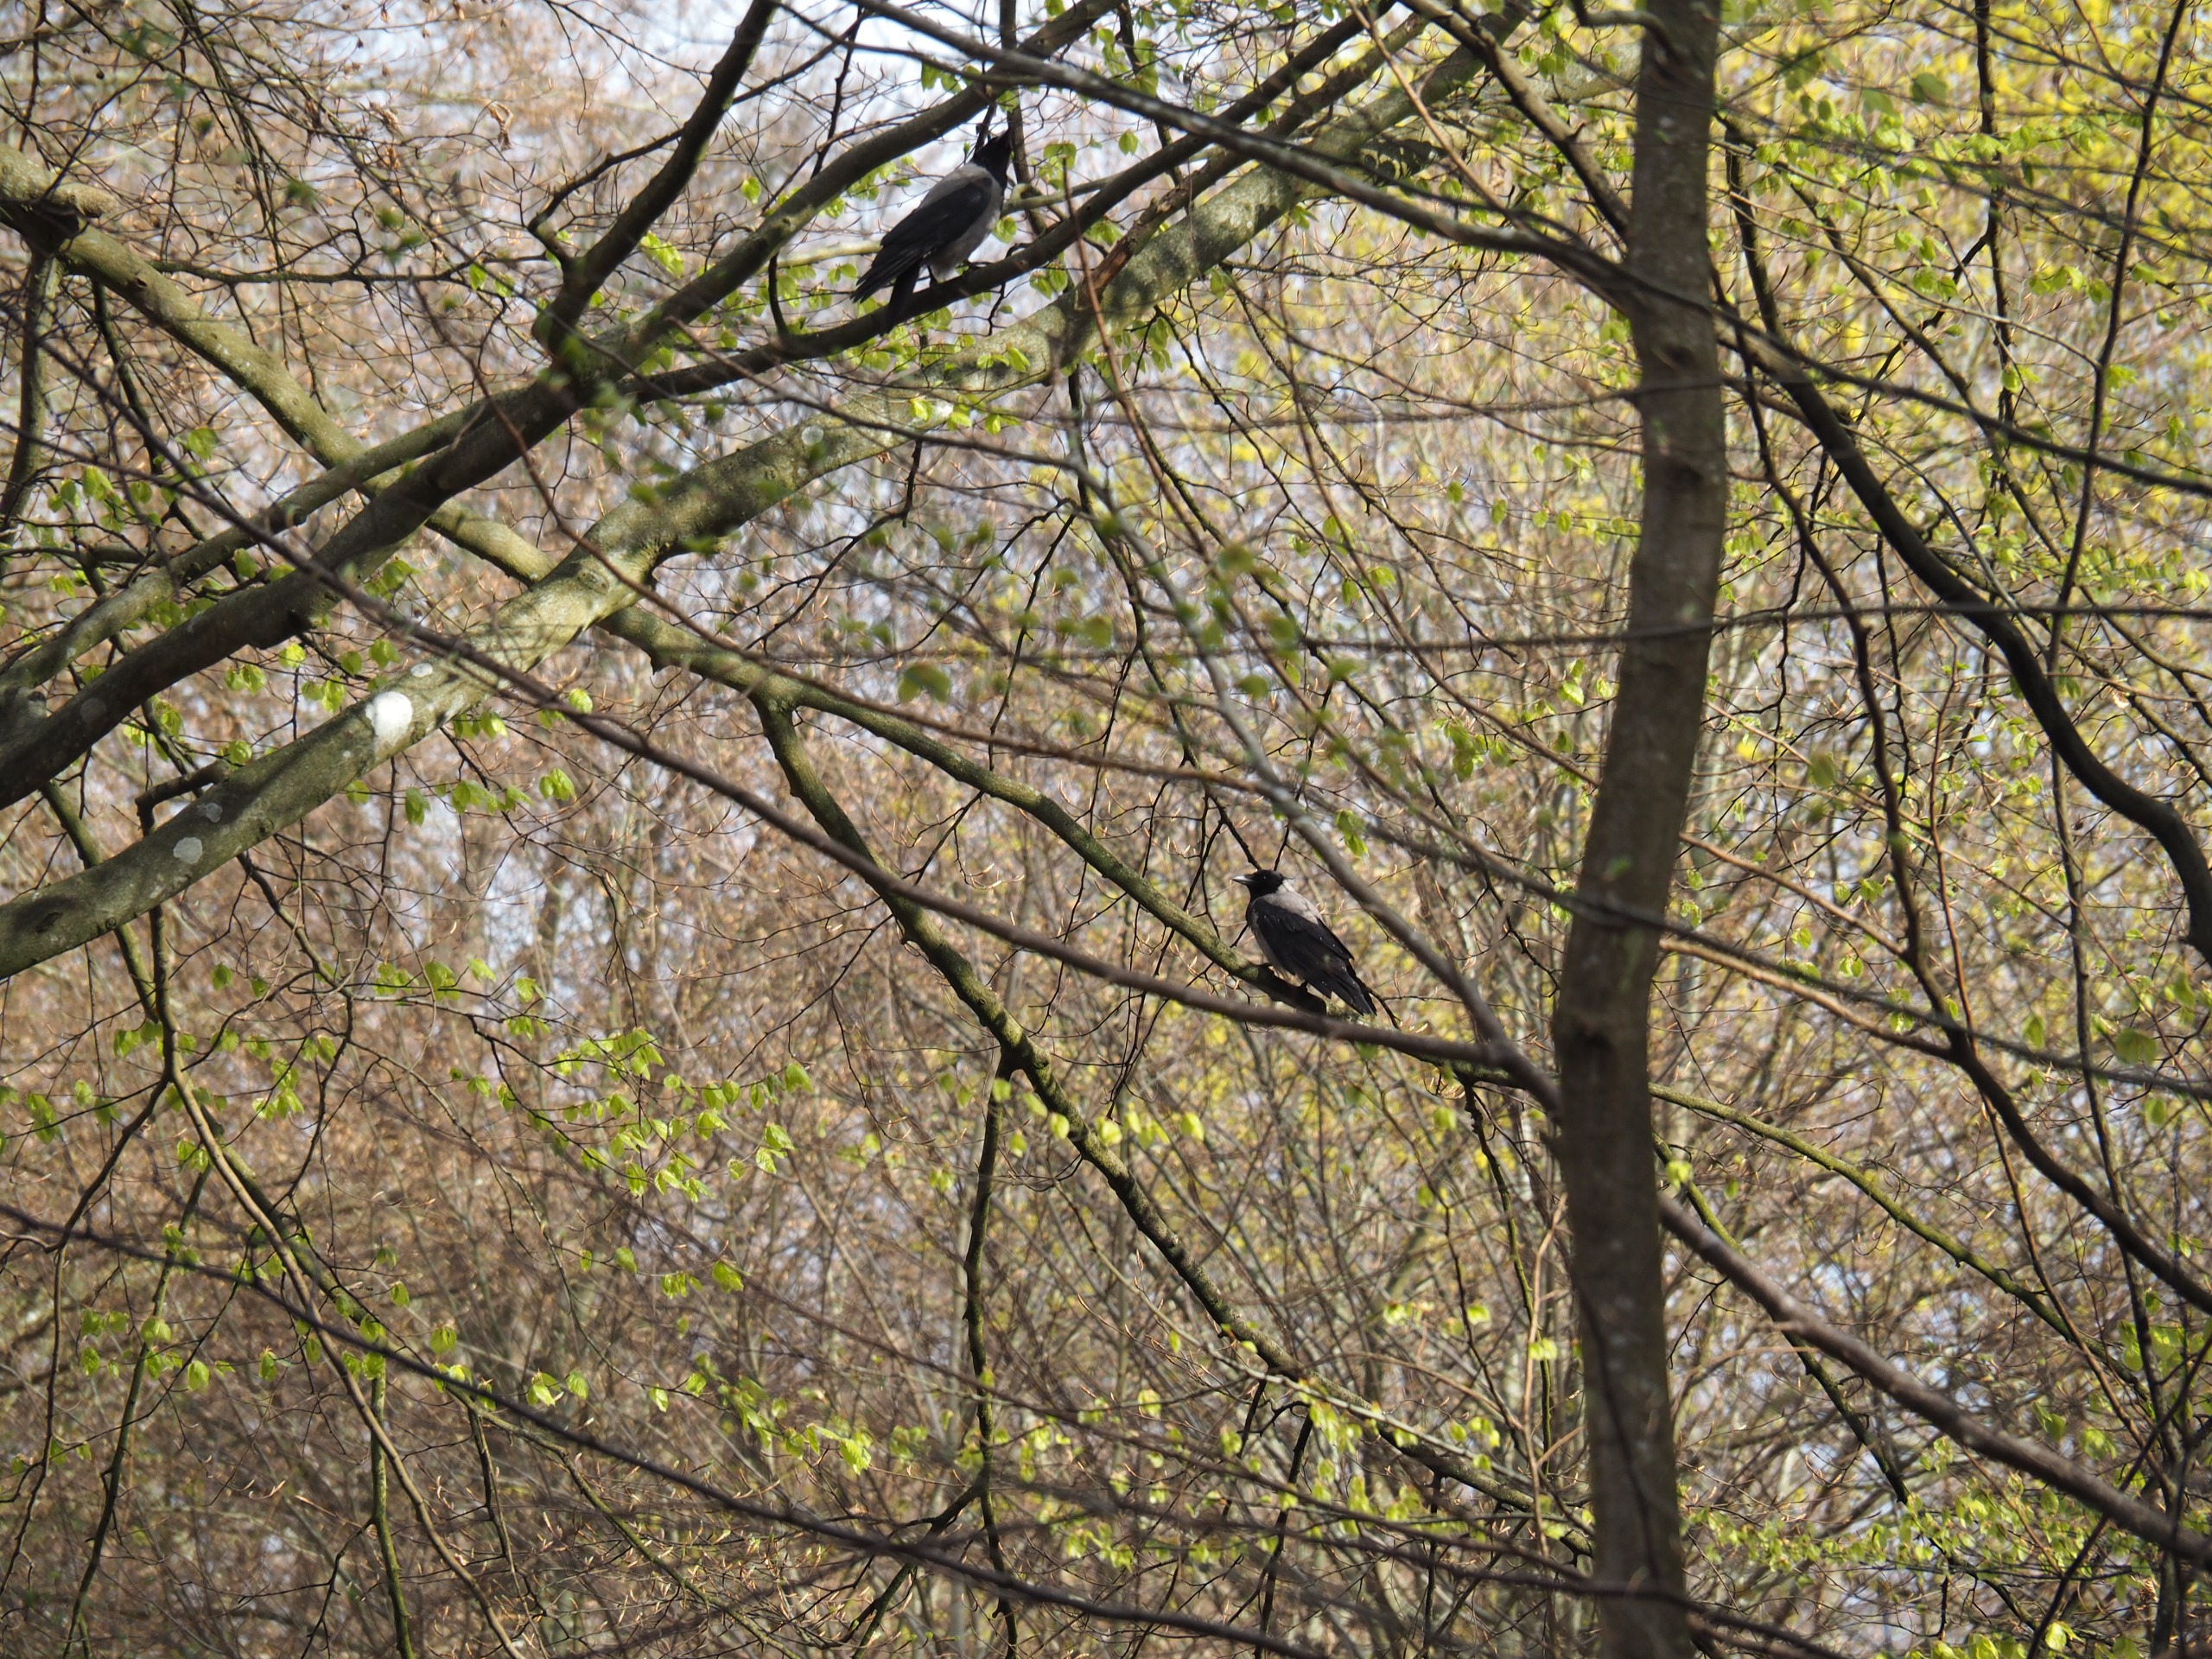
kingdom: Animalia
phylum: Chordata
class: Aves
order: Passeriformes
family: Corvidae
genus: Corvus
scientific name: Corvus cornix
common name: Gråkrage
